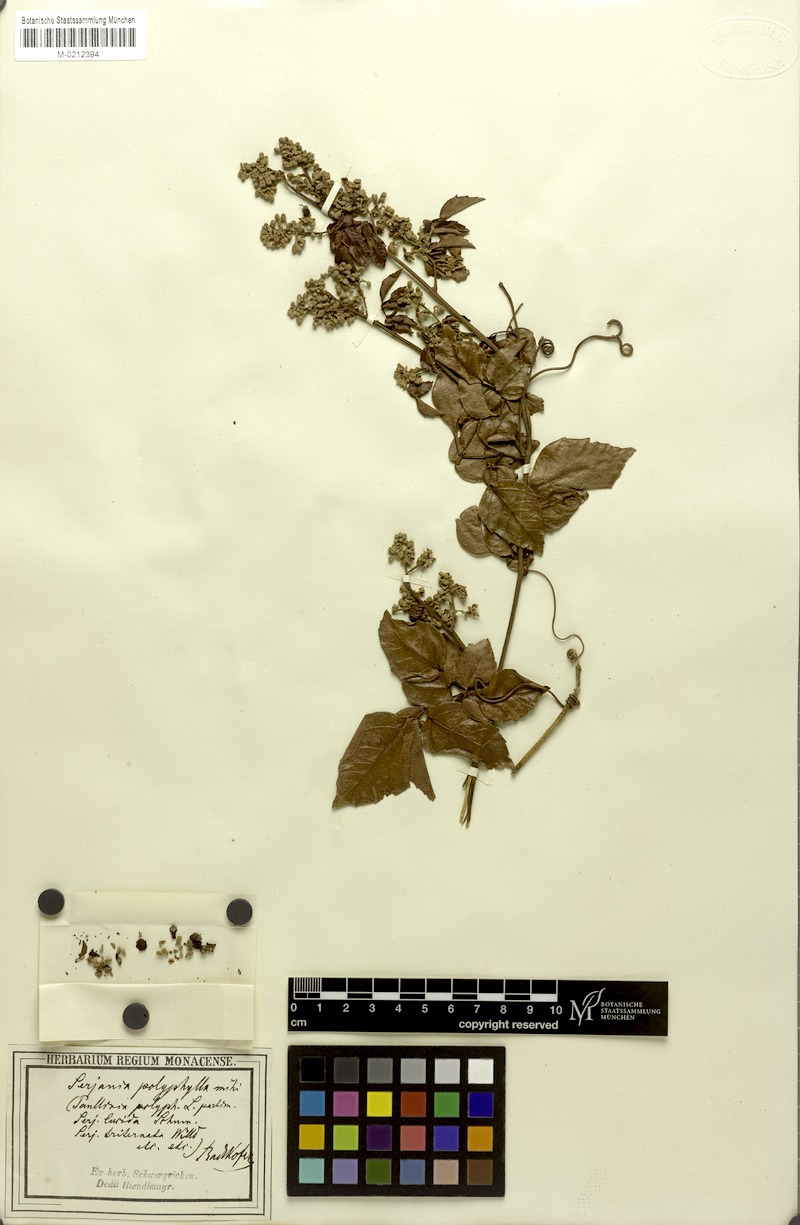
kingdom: Plantae
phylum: Tracheophyta
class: Magnoliopsida
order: Sapindales
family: Sapindaceae
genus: Serjania
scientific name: Serjania polyphylla
